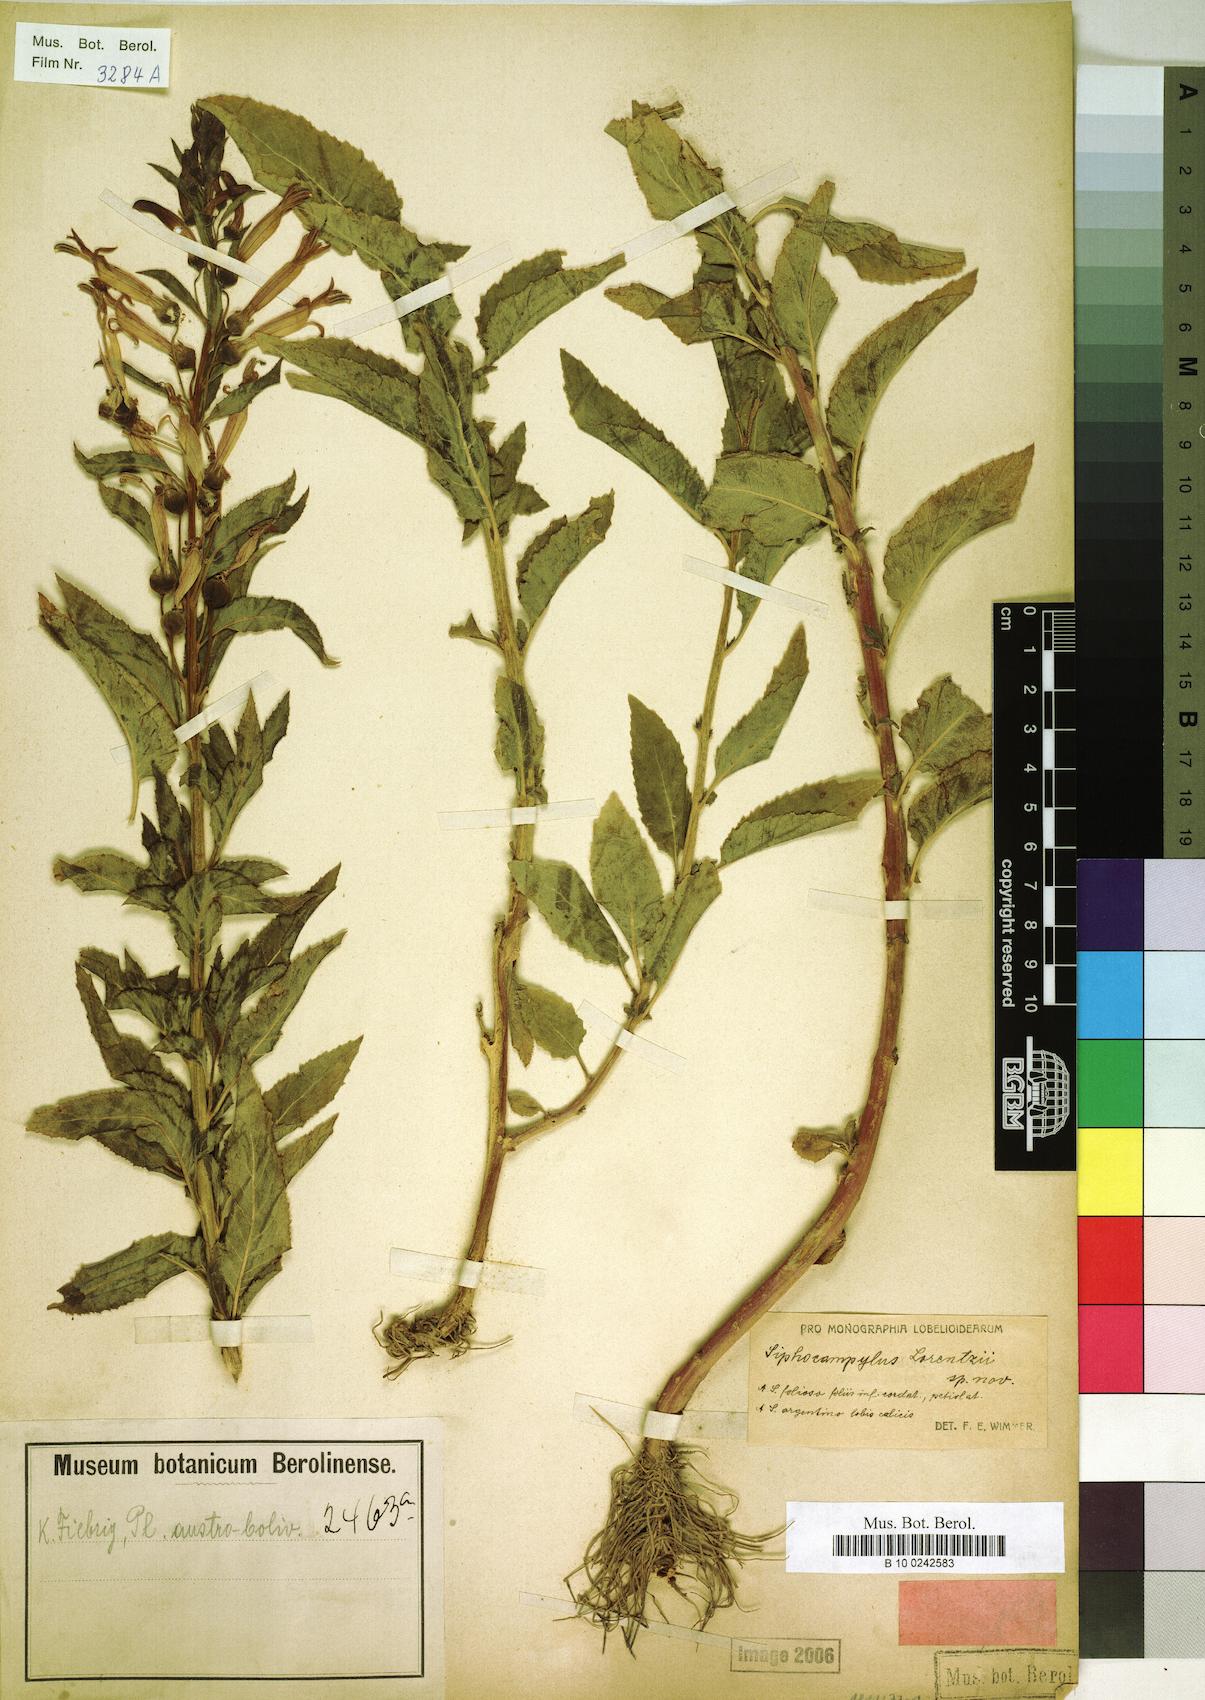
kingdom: Plantae
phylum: Tracheophyta
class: Magnoliopsida
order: Asterales
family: Campanulaceae
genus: Siphocampylus
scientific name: Siphocampylus nemoralis
